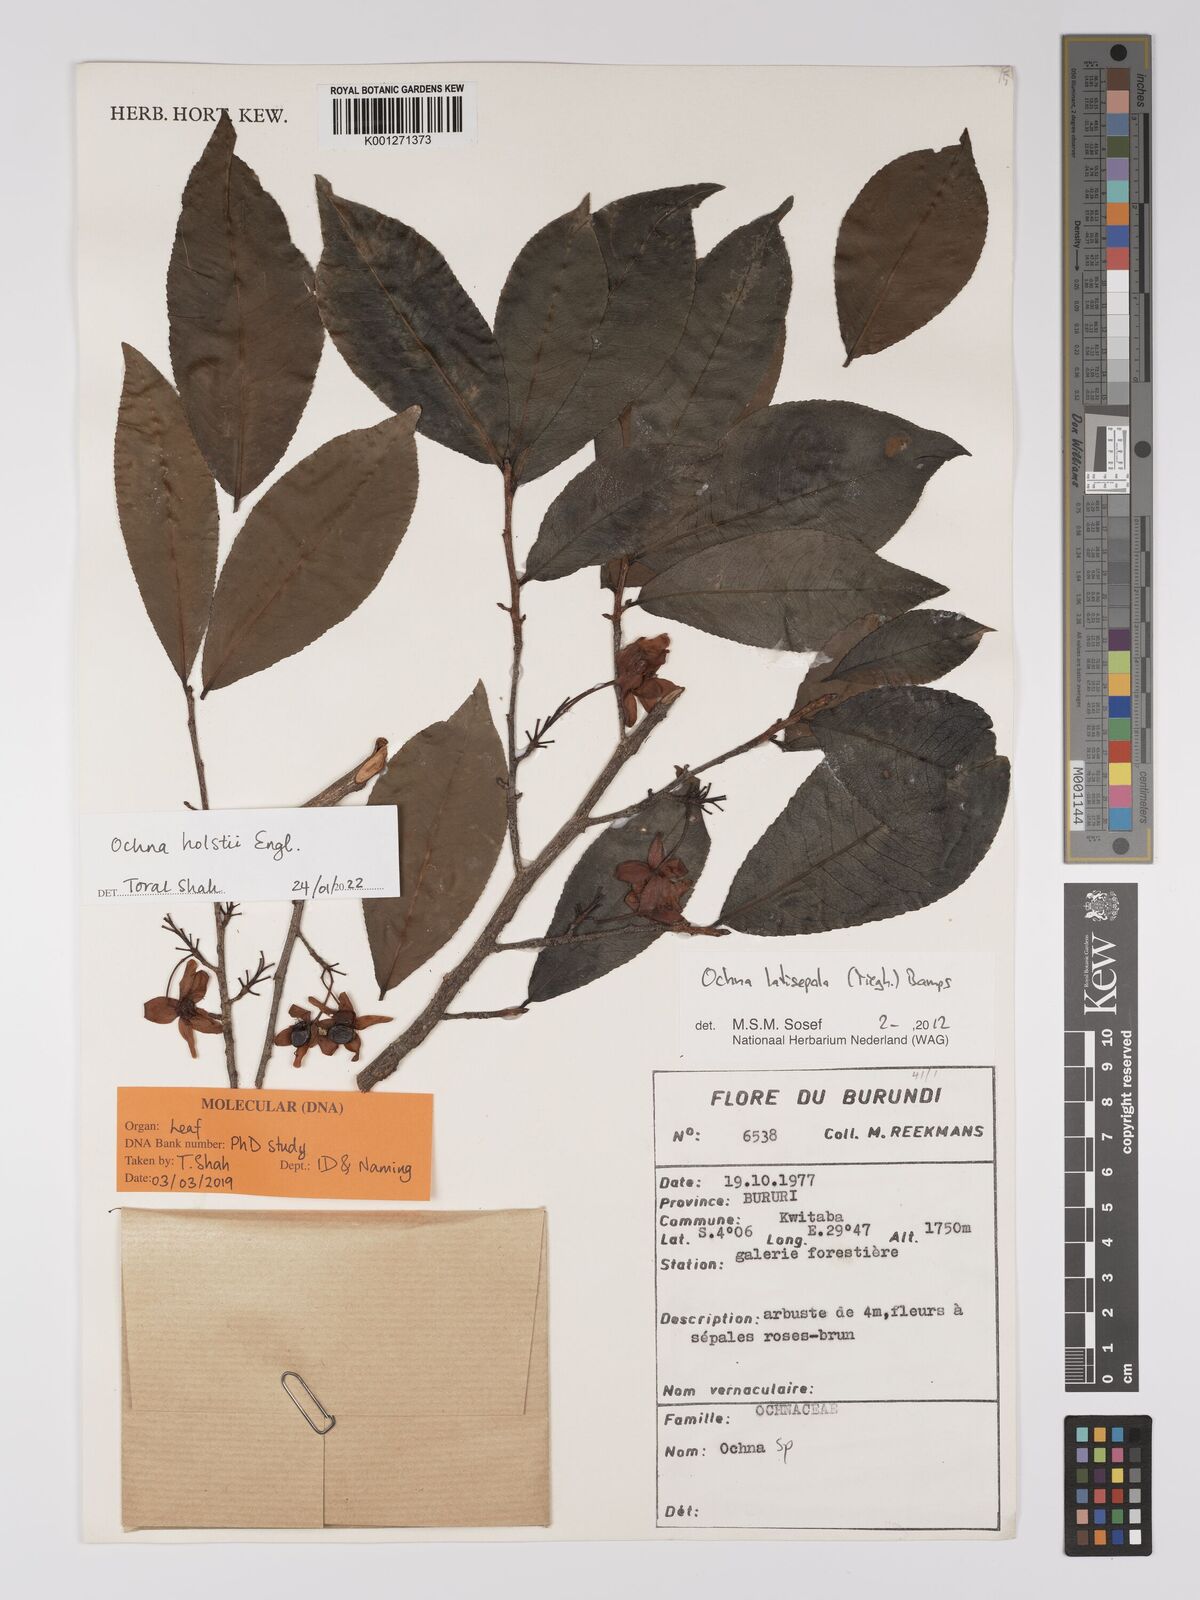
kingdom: Plantae
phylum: Tracheophyta
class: Magnoliopsida
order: Malpighiales
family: Ochnaceae
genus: Ochna
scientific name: Ochna holstii
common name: Red ironwood
